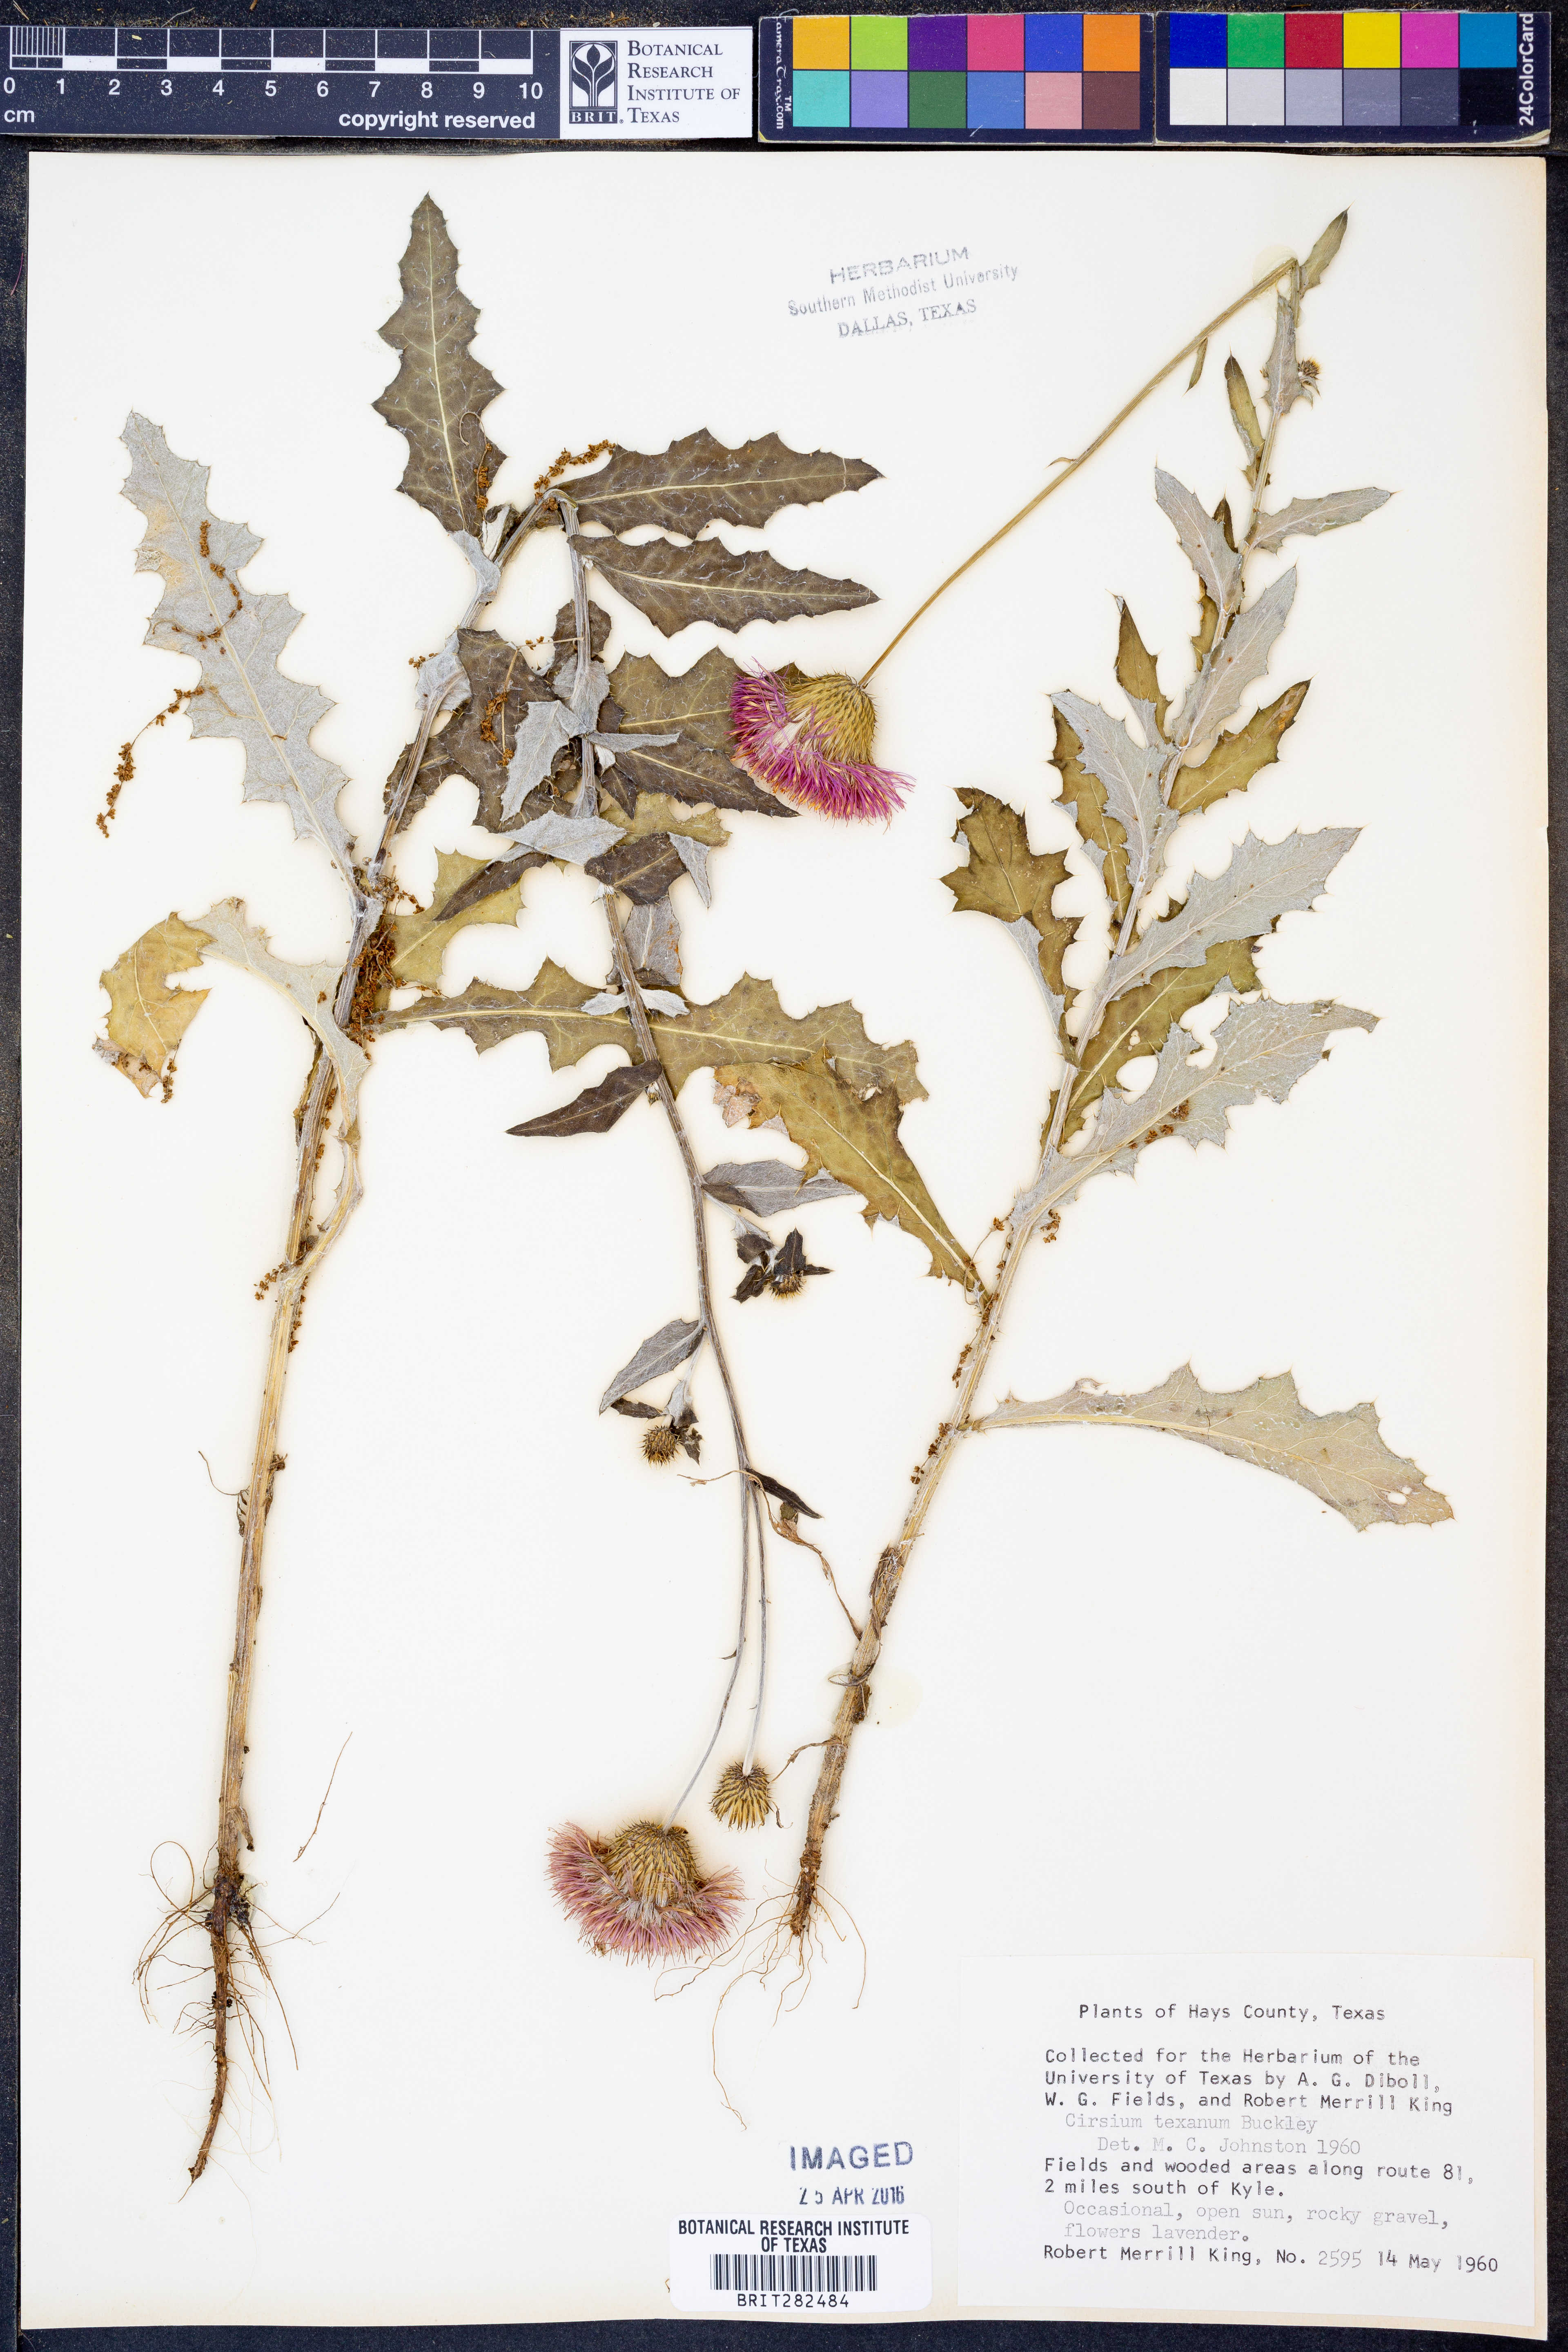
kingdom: Plantae
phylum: Tracheophyta
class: Magnoliopsida
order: Asterales
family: Asteraceae
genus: Cirsium
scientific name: Cirsium texanum
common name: Texas purple thistle
